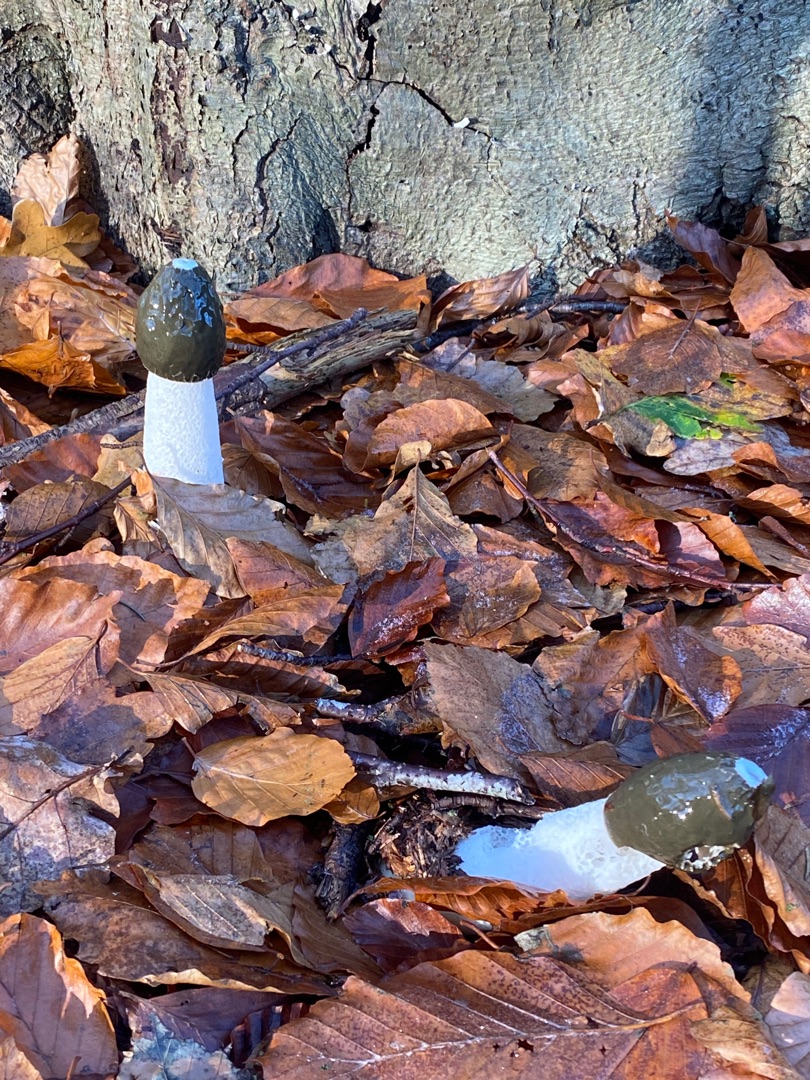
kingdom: Fungi
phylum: Basidiomycota
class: Agaricomycetes
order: Phallales
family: Phallaceae
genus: Phallus
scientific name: Phallus impudicus
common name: Almindelig stinksvamp
